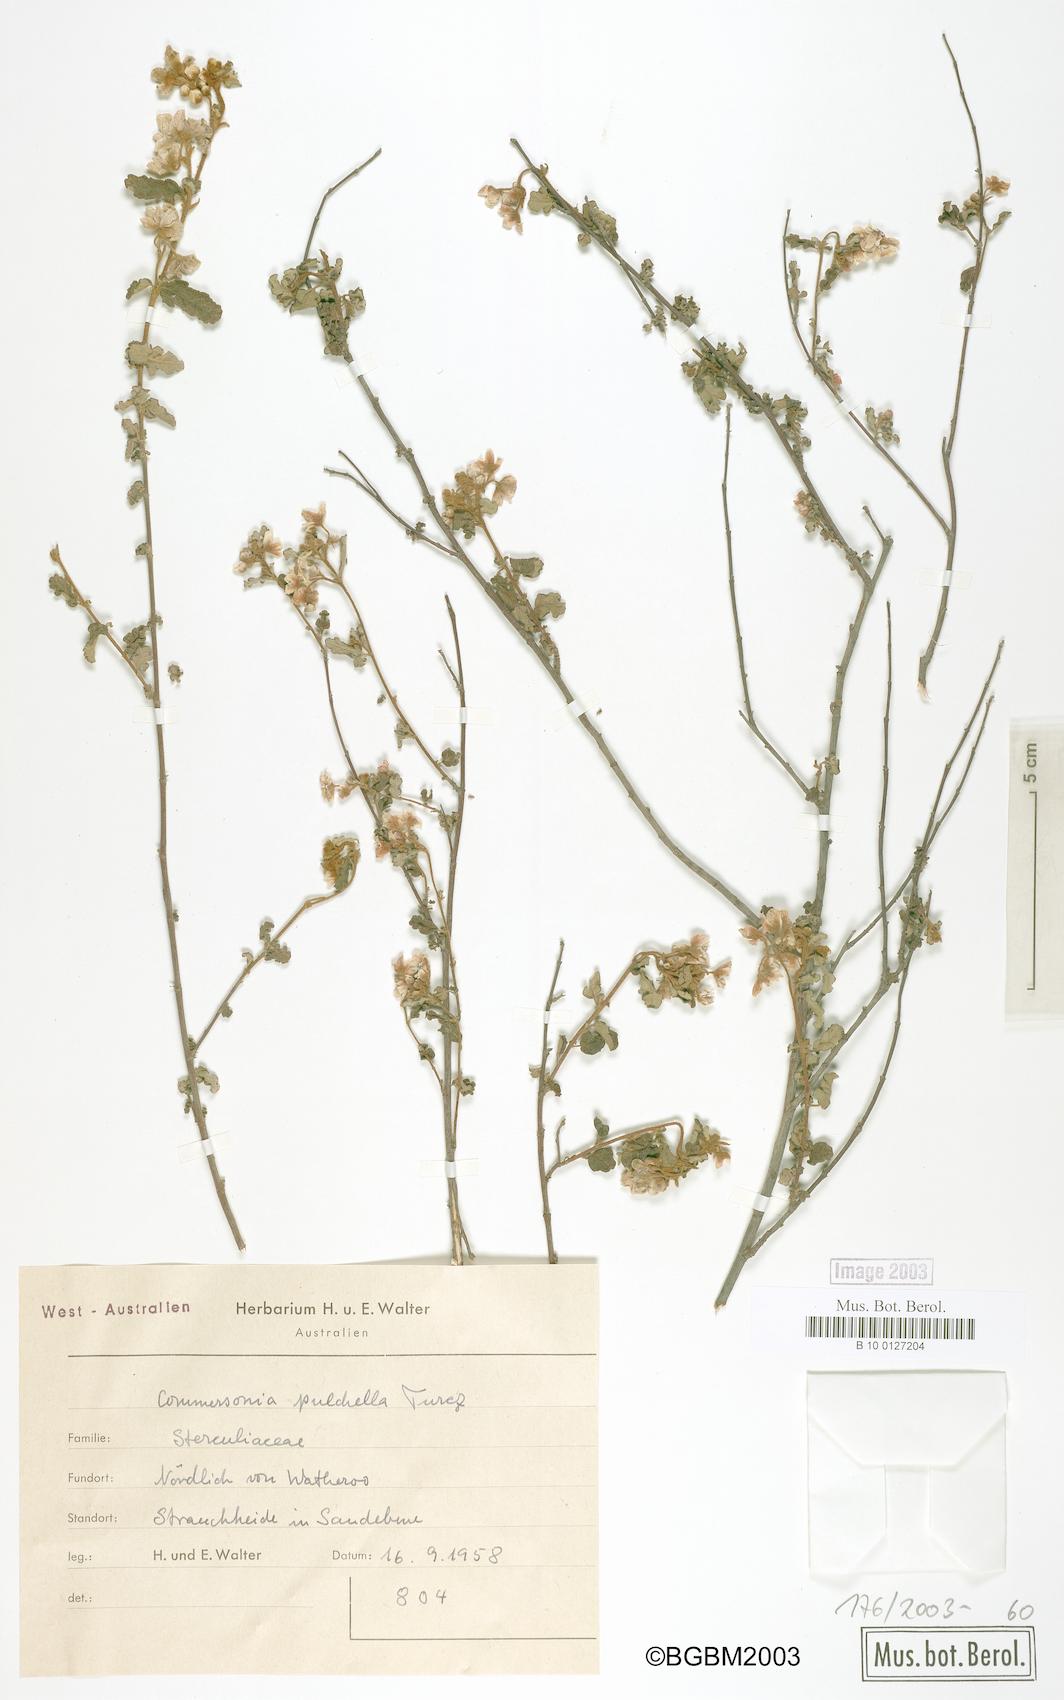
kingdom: Plantae
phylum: Tracheophyta
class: Magnoliopsida
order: Malvales
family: Malvaceae
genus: Androcalva
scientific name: Androcalva pulchella
